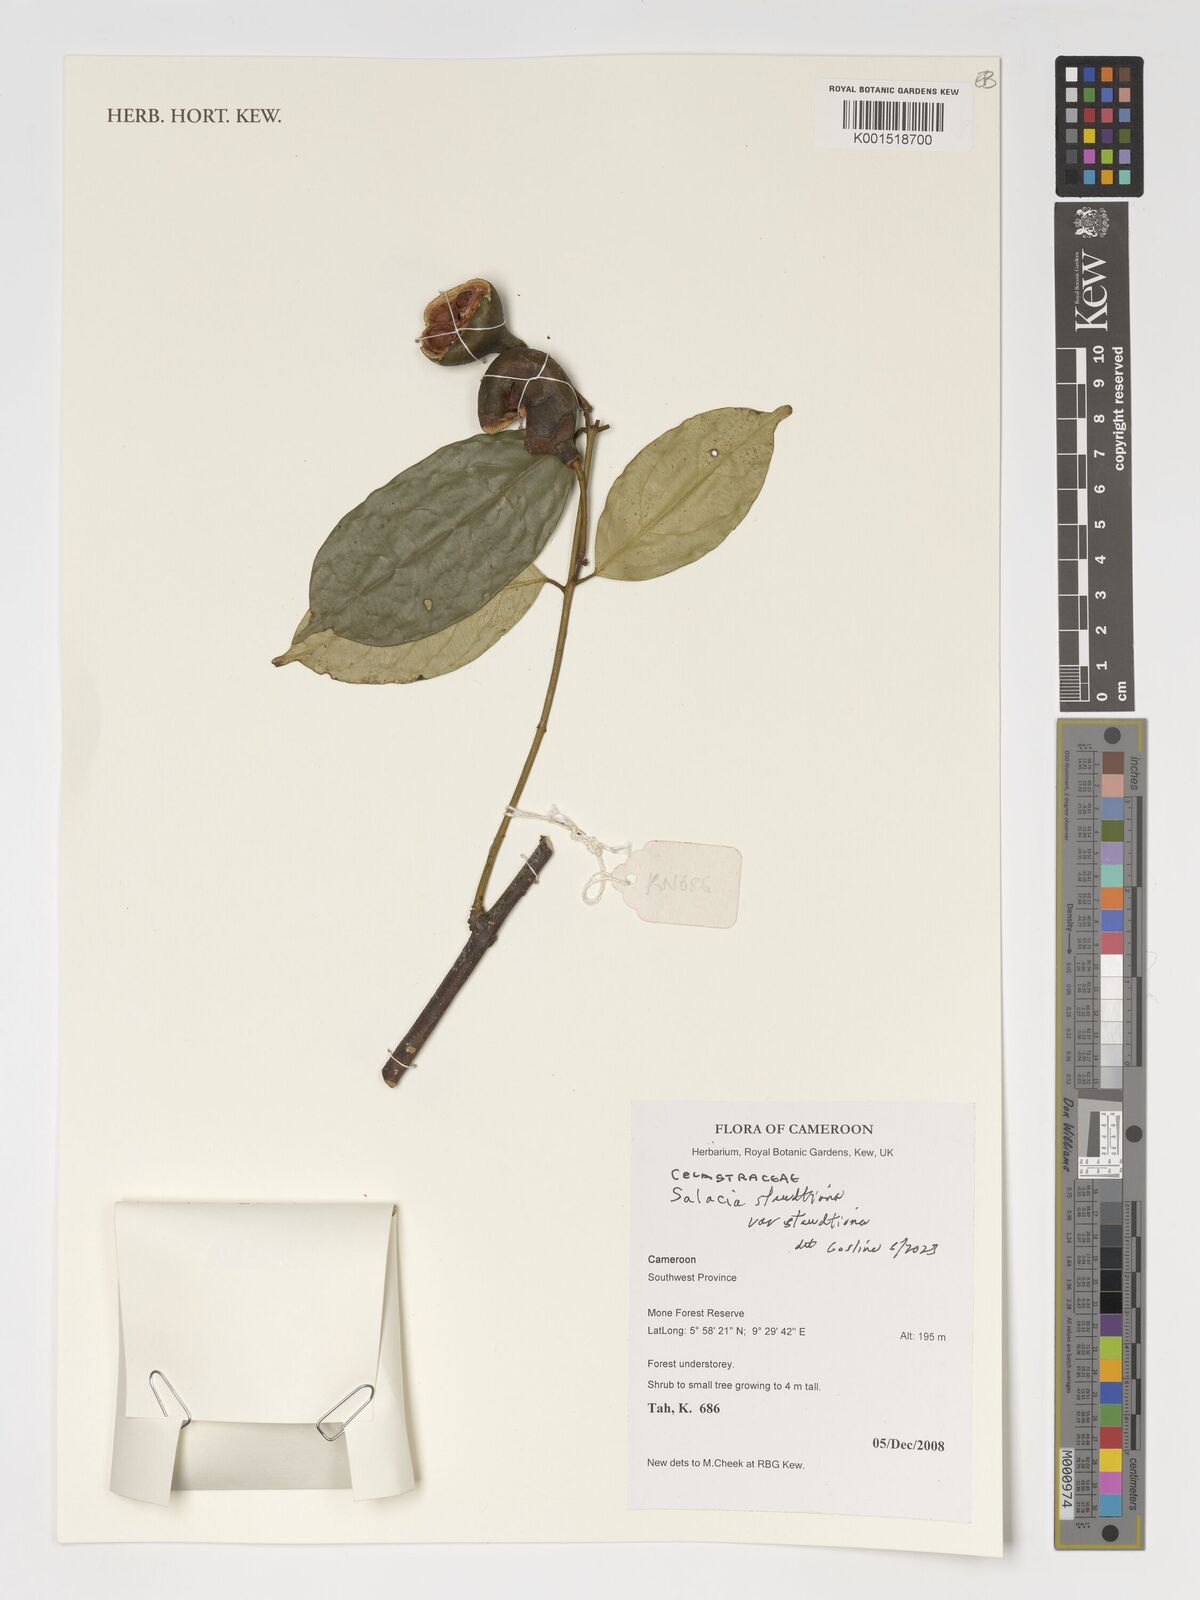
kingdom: Plantae
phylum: Tracheophyta
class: Magnoliopsida
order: Celastrales
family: Celastraceae
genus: Salacia
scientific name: Salacia staudtiana
